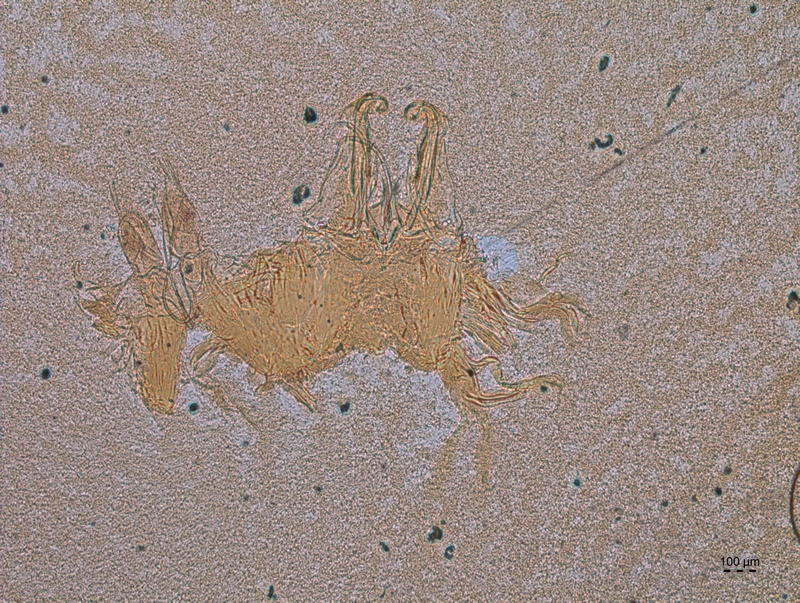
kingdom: Animalia
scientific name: Animalia
